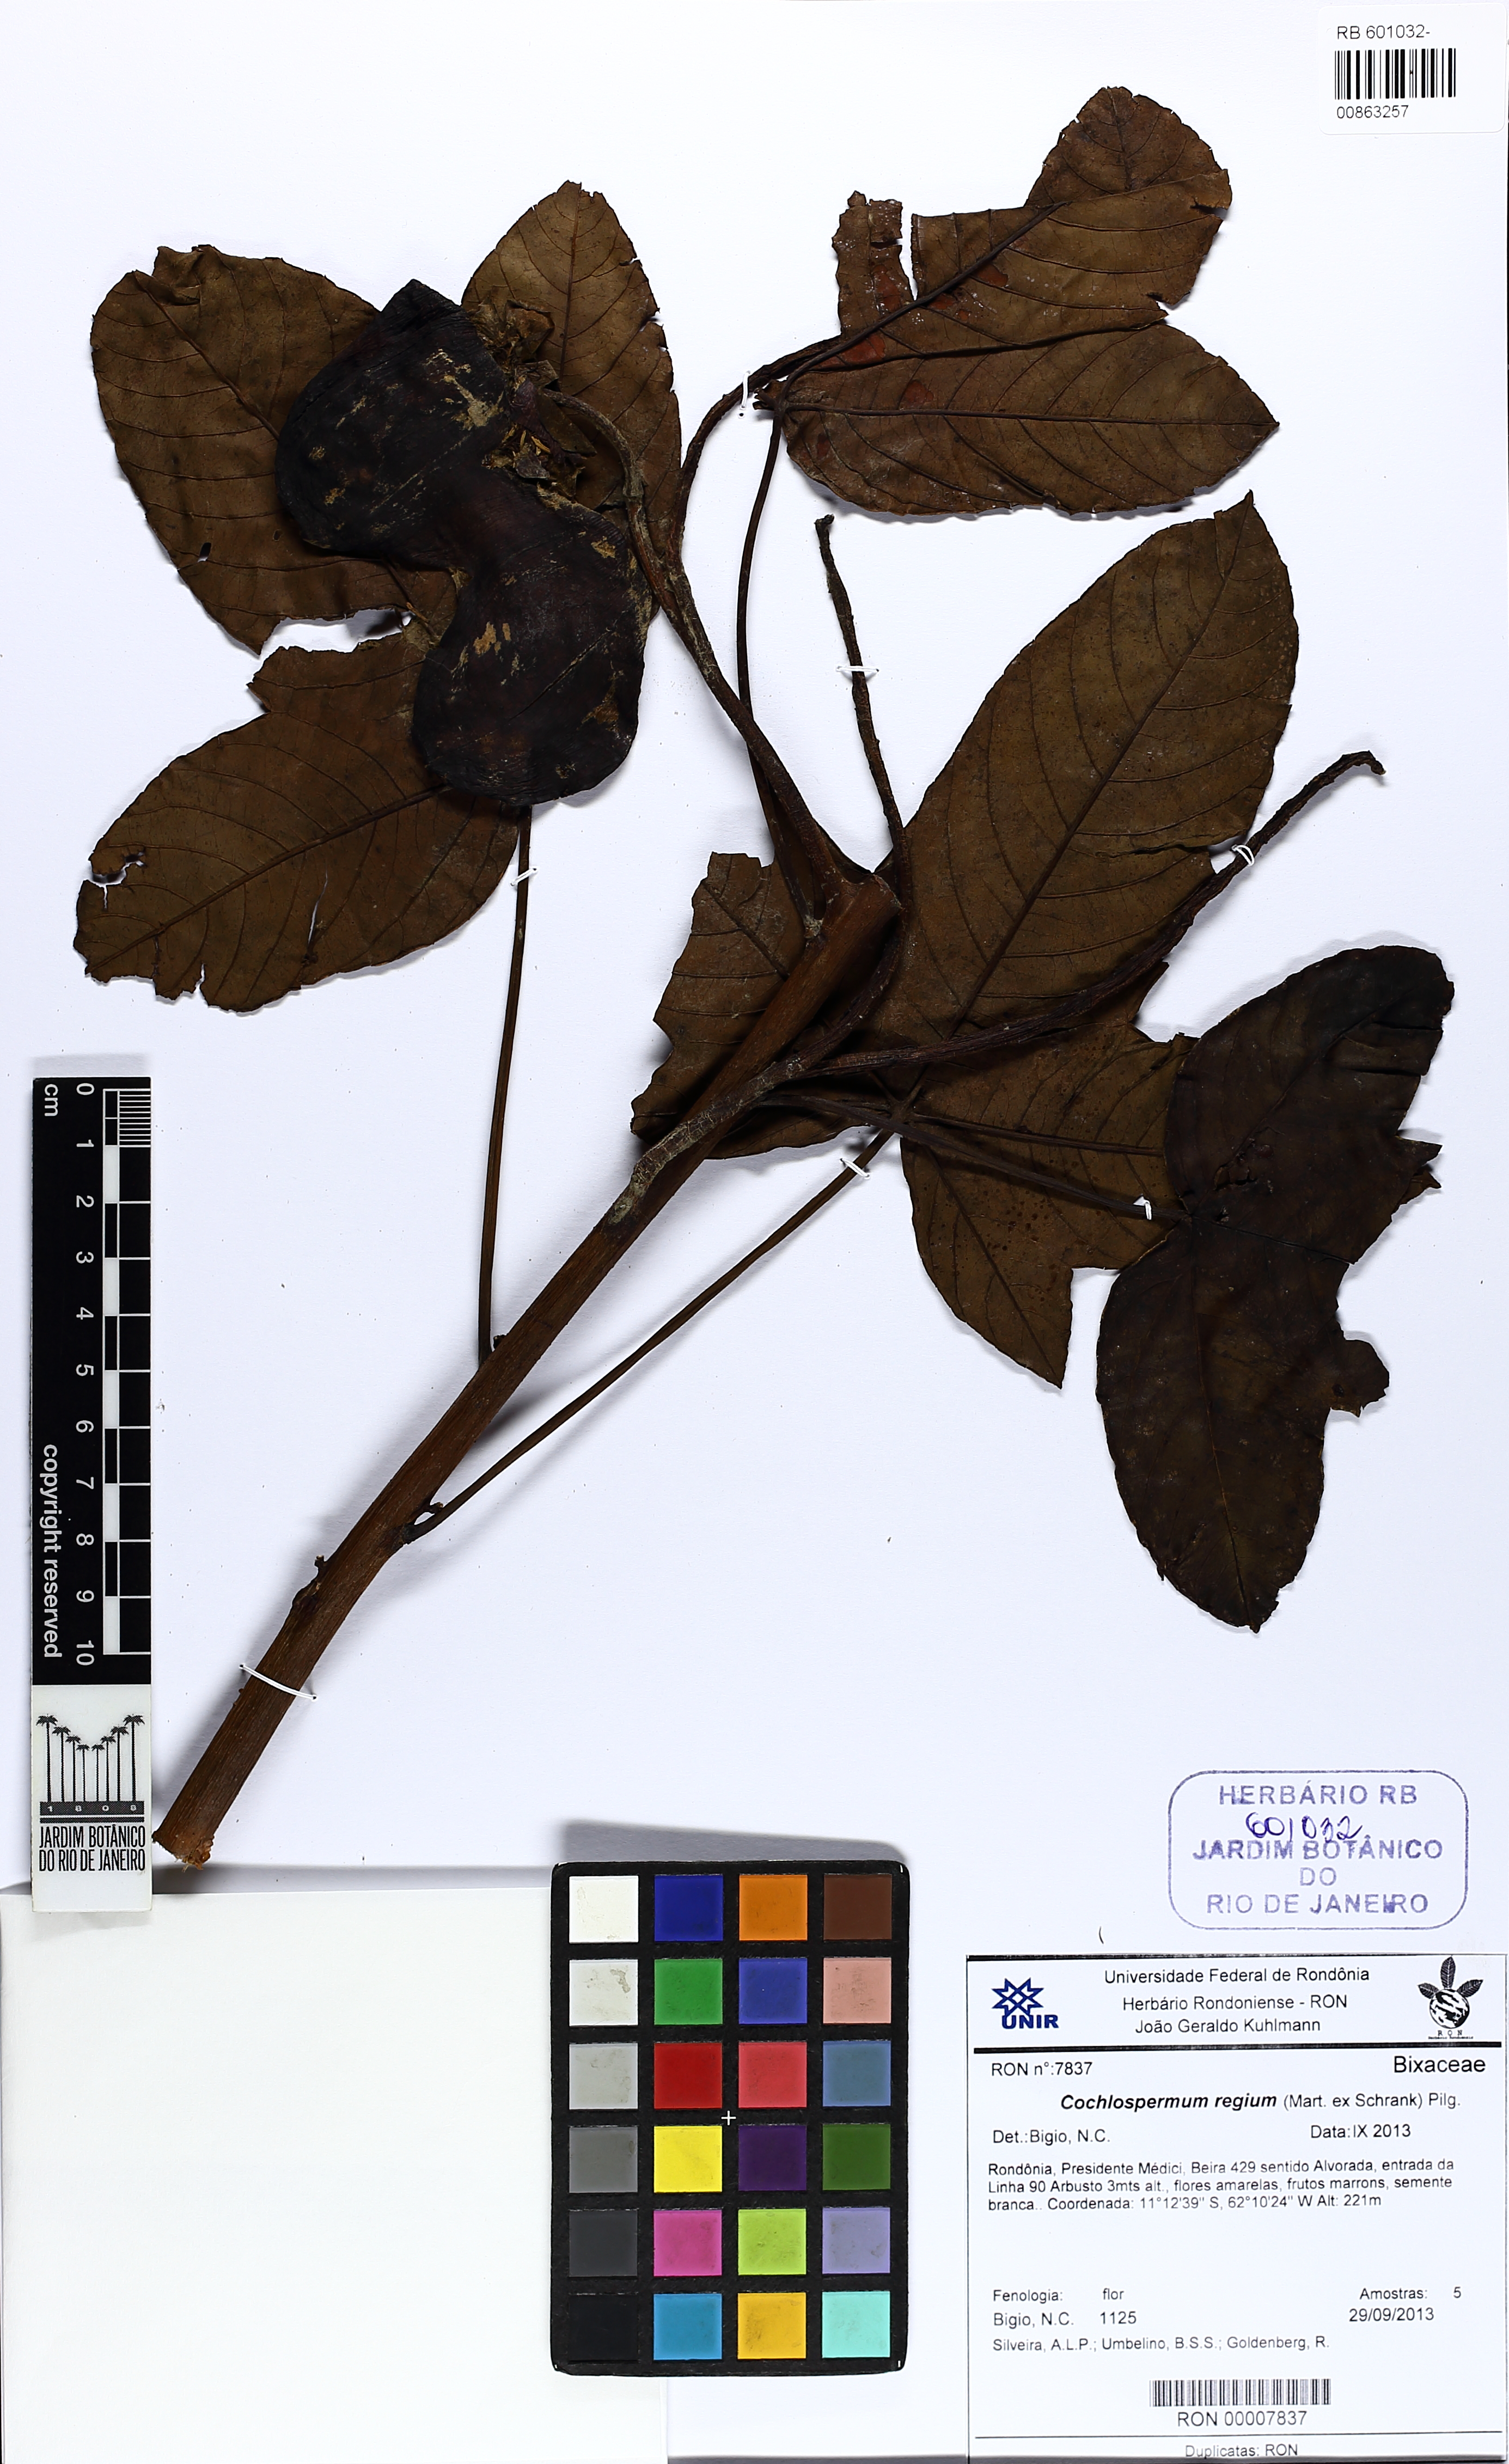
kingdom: Plantae
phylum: Tracheophyta
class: Magnoliopsida
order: Malvales
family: Cochlospermaceae
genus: Cochlospermum
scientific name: Cochlospermum regium
